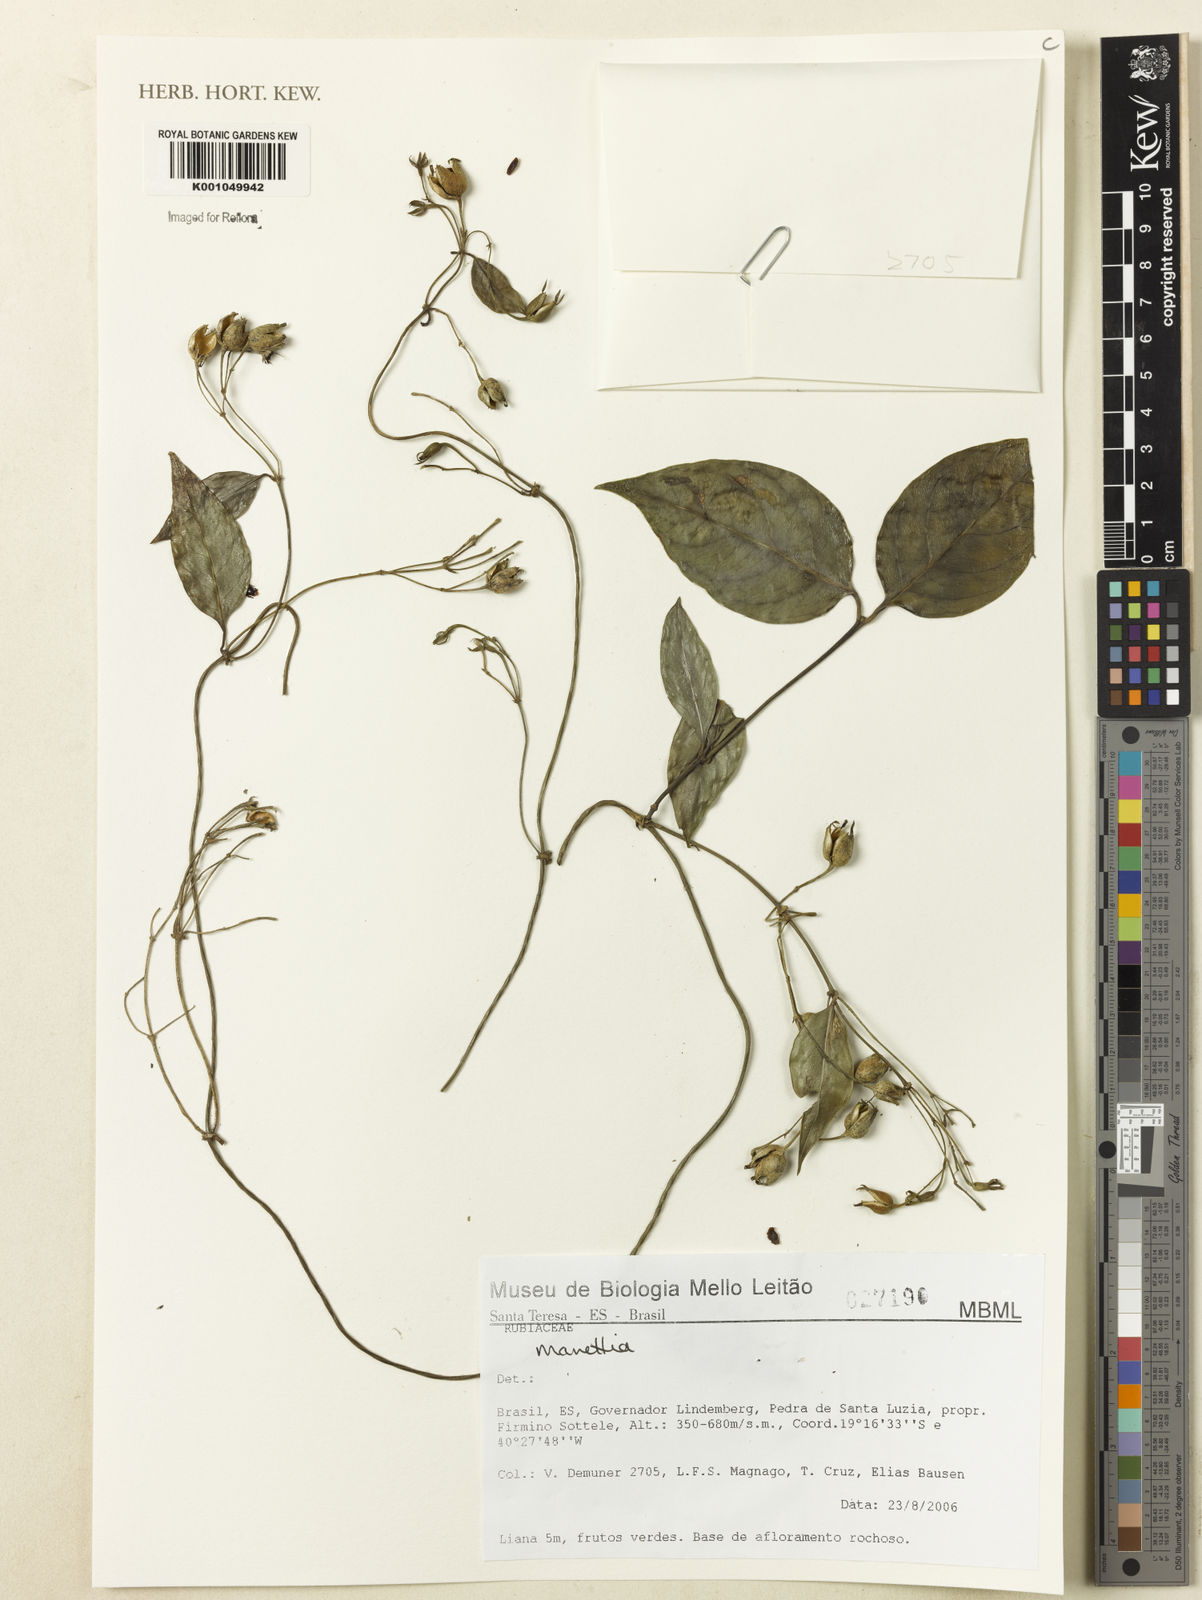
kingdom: Plantae
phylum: Tracheophyta
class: Magnoliopsida
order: Gentianales
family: Rubiaceae
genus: Manettia
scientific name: Manettia
